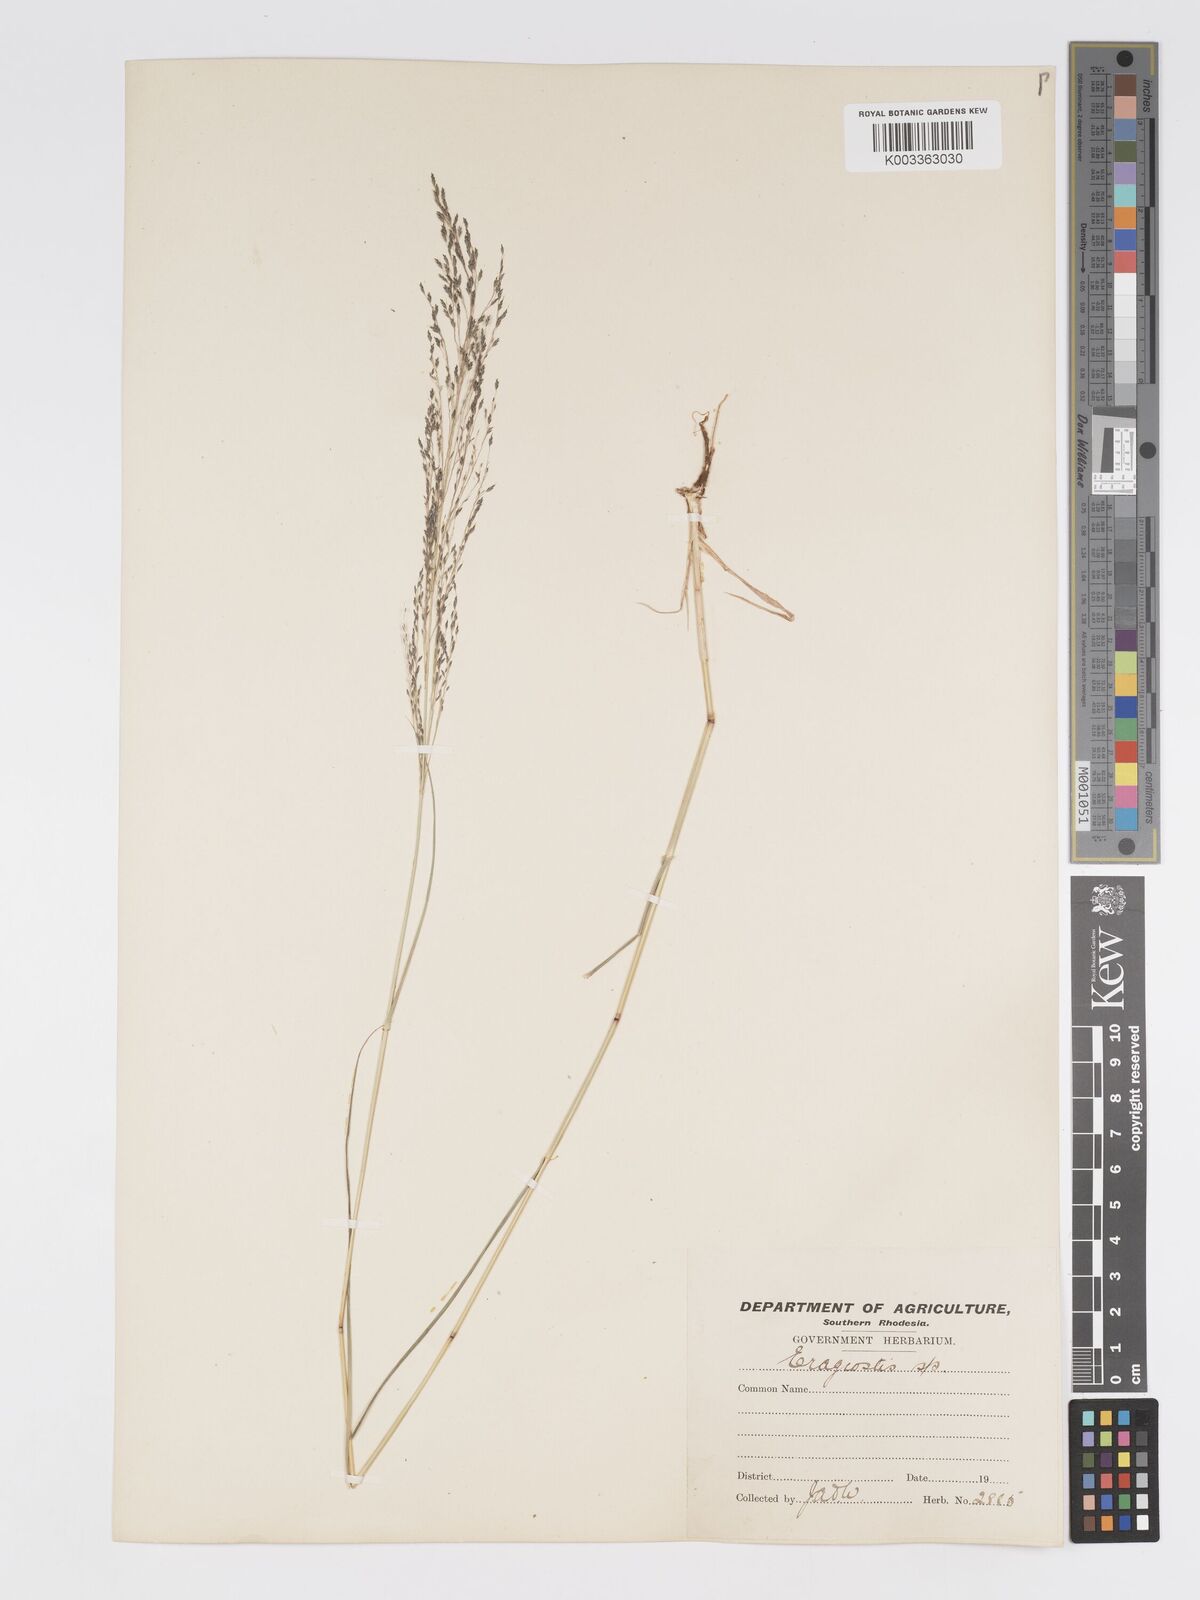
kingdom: Plantae
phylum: Tracheophyta
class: Liliopsida
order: Poales
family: Poaceae
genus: Eragrostis
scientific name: Eragrostis cylindriflora
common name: Cylinderflower lovegrass
